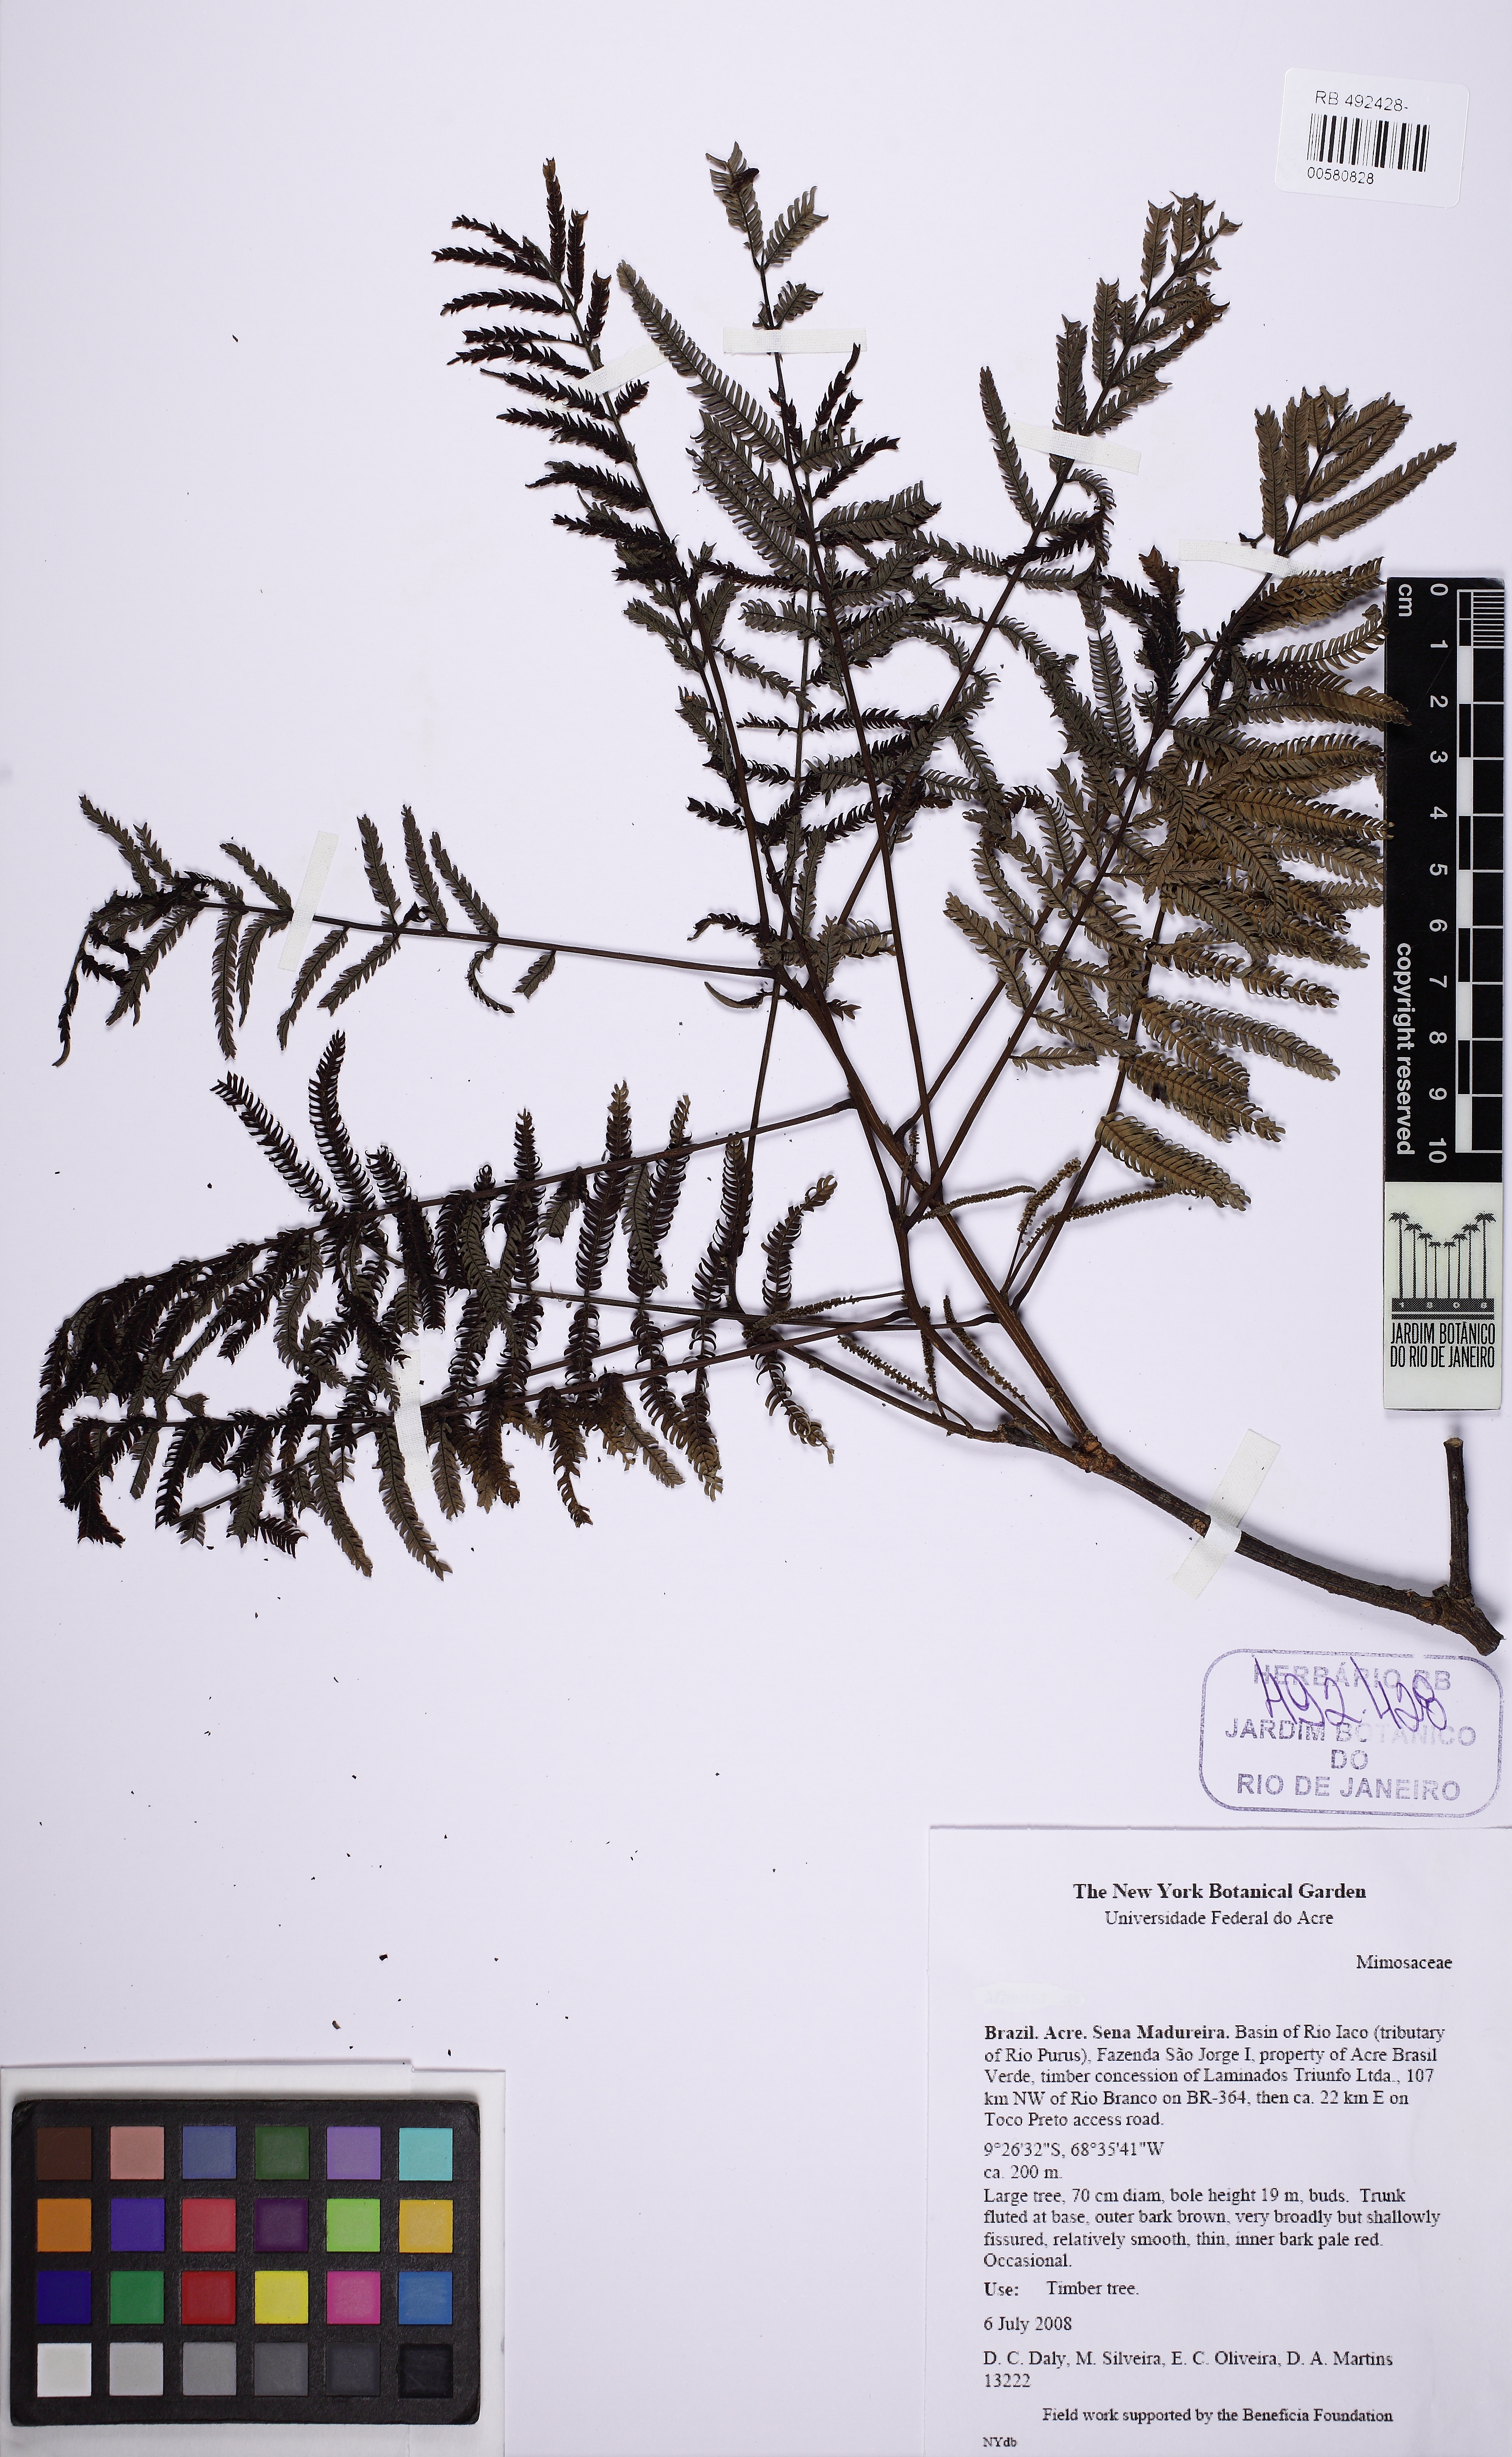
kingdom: Plantae
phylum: Tracheophyta
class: Magnoliopsida
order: Fabales
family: Fabaceae
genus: Stryphnodendron
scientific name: Stryphnodendron pulcherrimum
